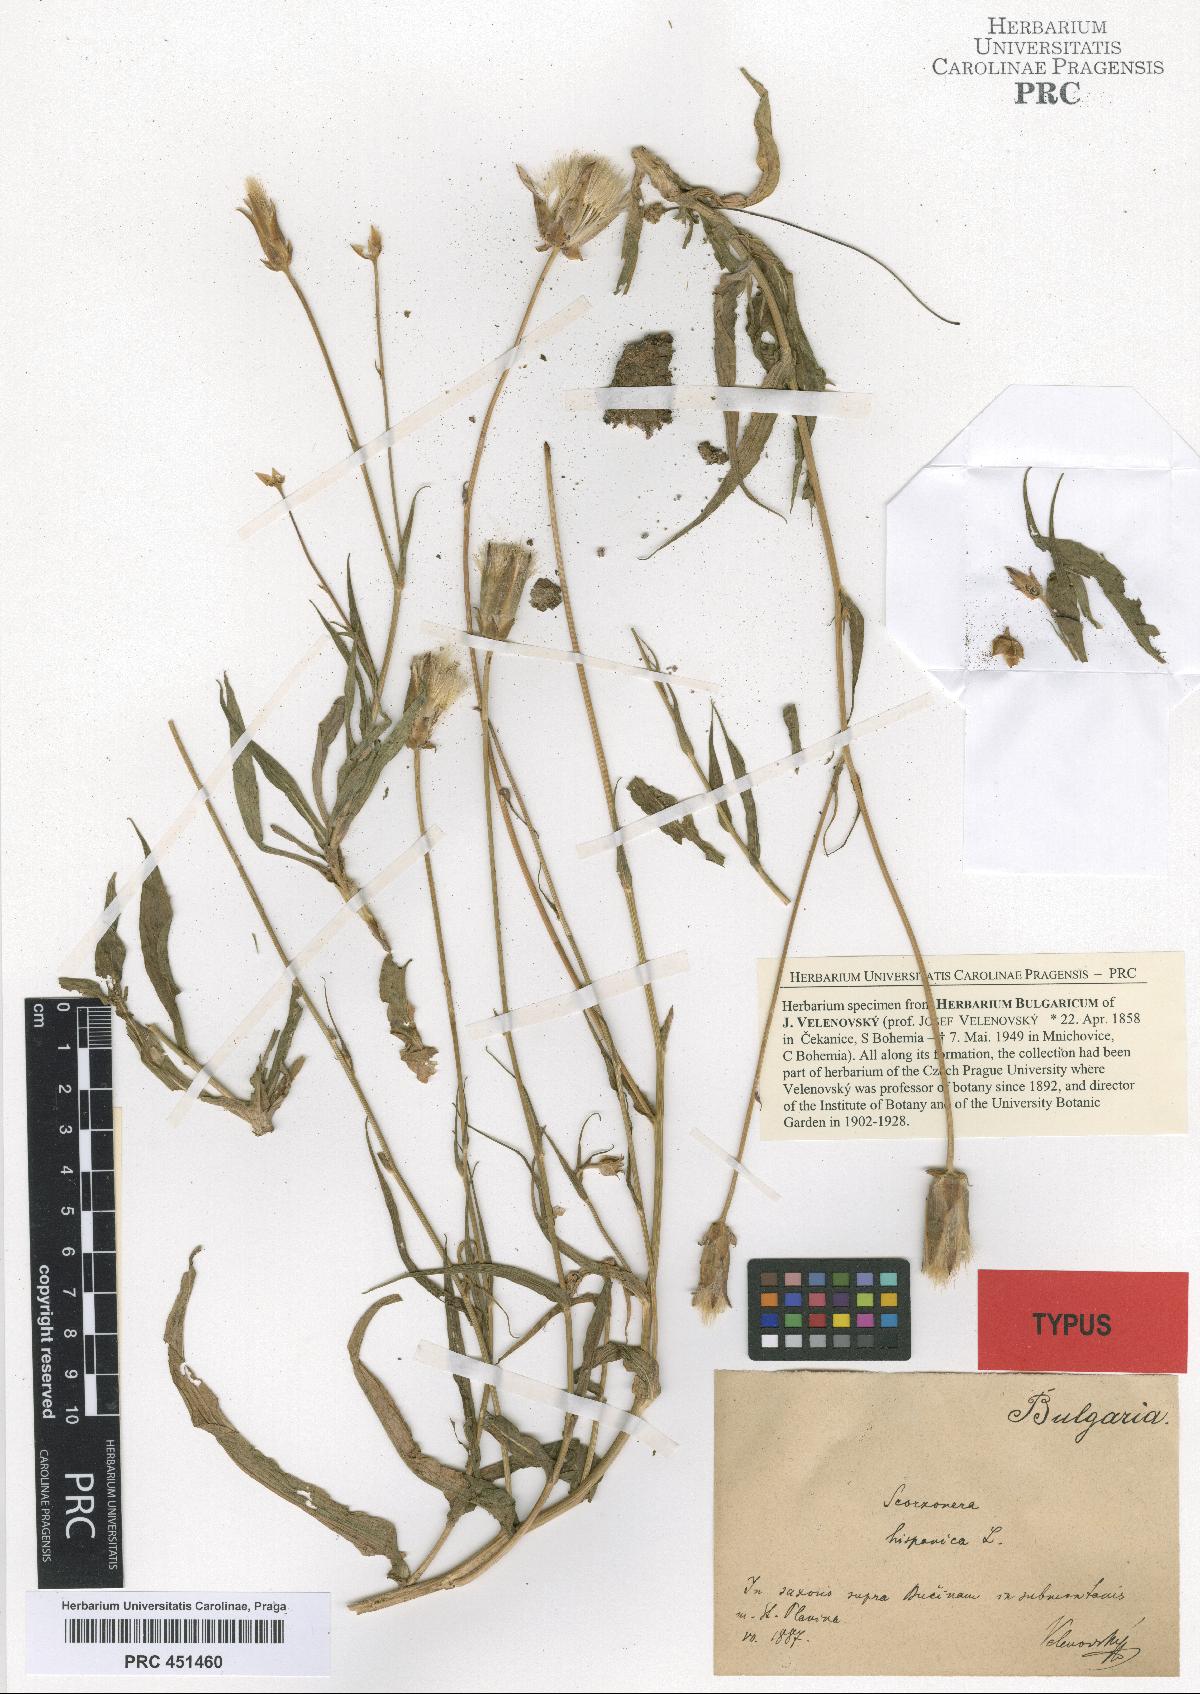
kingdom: Plantae
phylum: Tracheophyta
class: Magnoliopsida
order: Asterales
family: Asteraceae
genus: Pseudopodospermum
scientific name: Pseudopodospermum hispanicum
